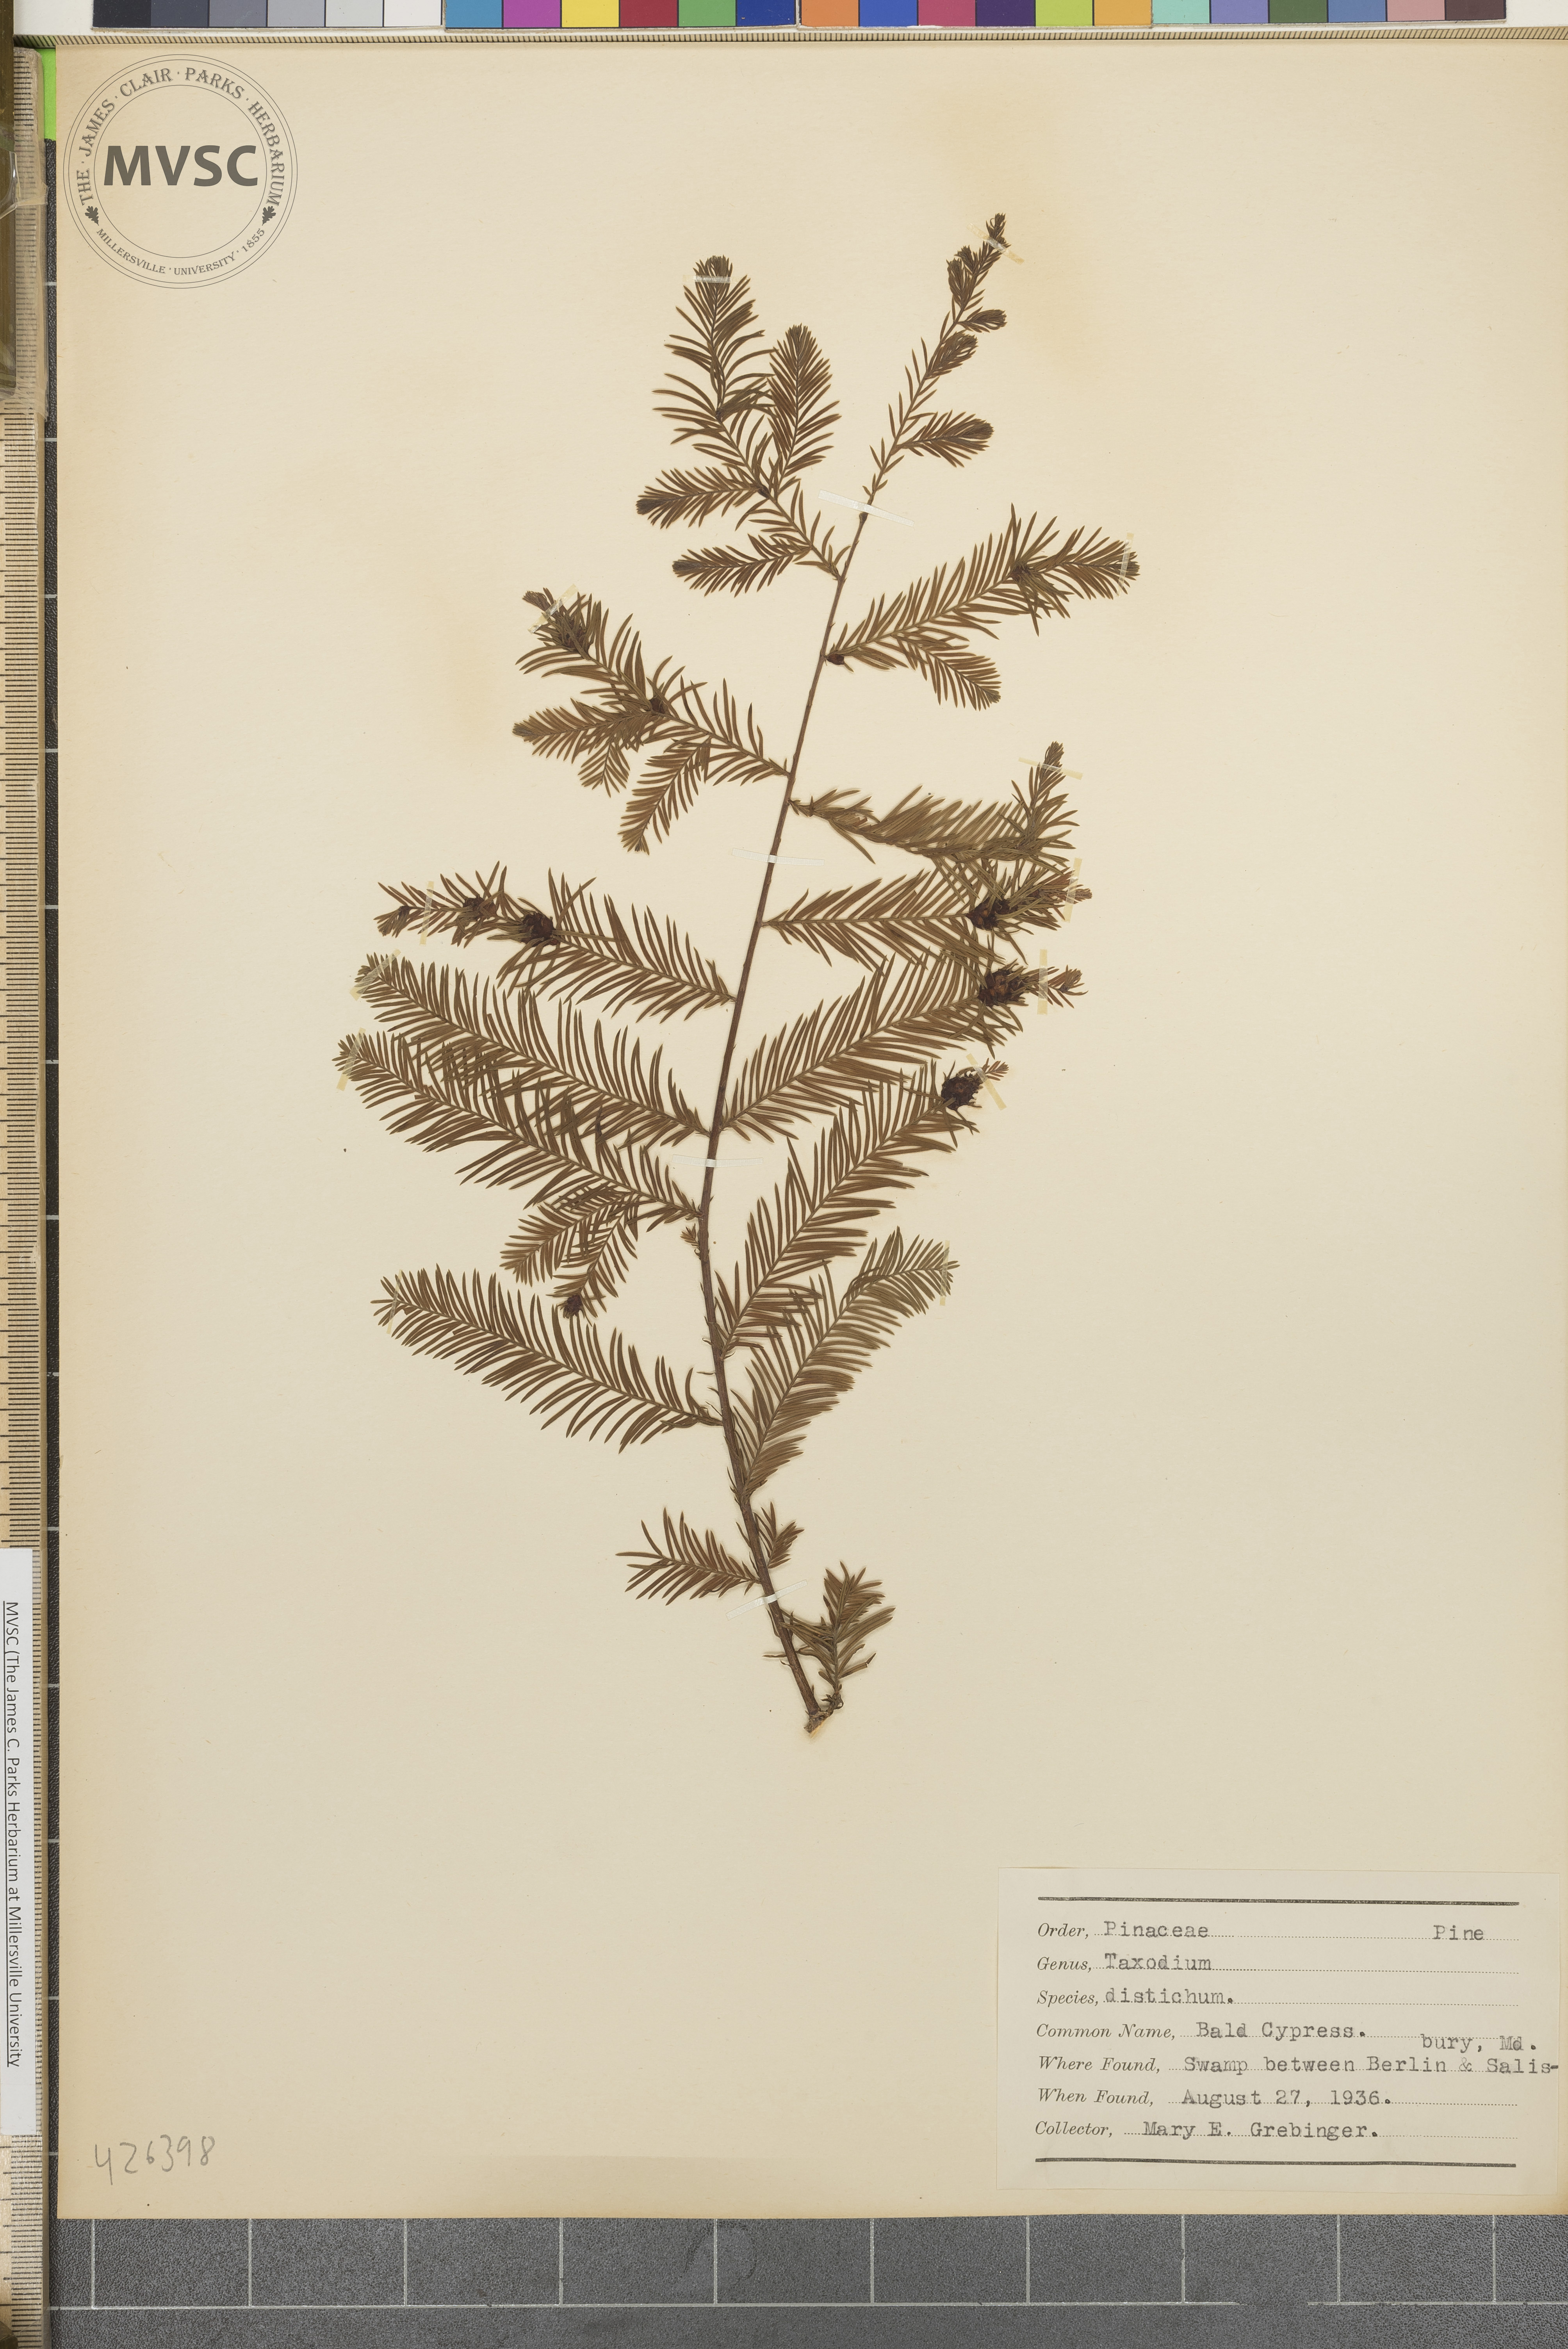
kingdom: Plantae
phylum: Tracheophyta
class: Pinopsida
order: Pinales
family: Cupressaceae
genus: Taxodium
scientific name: Taxodium distichum
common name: Bald cypress
